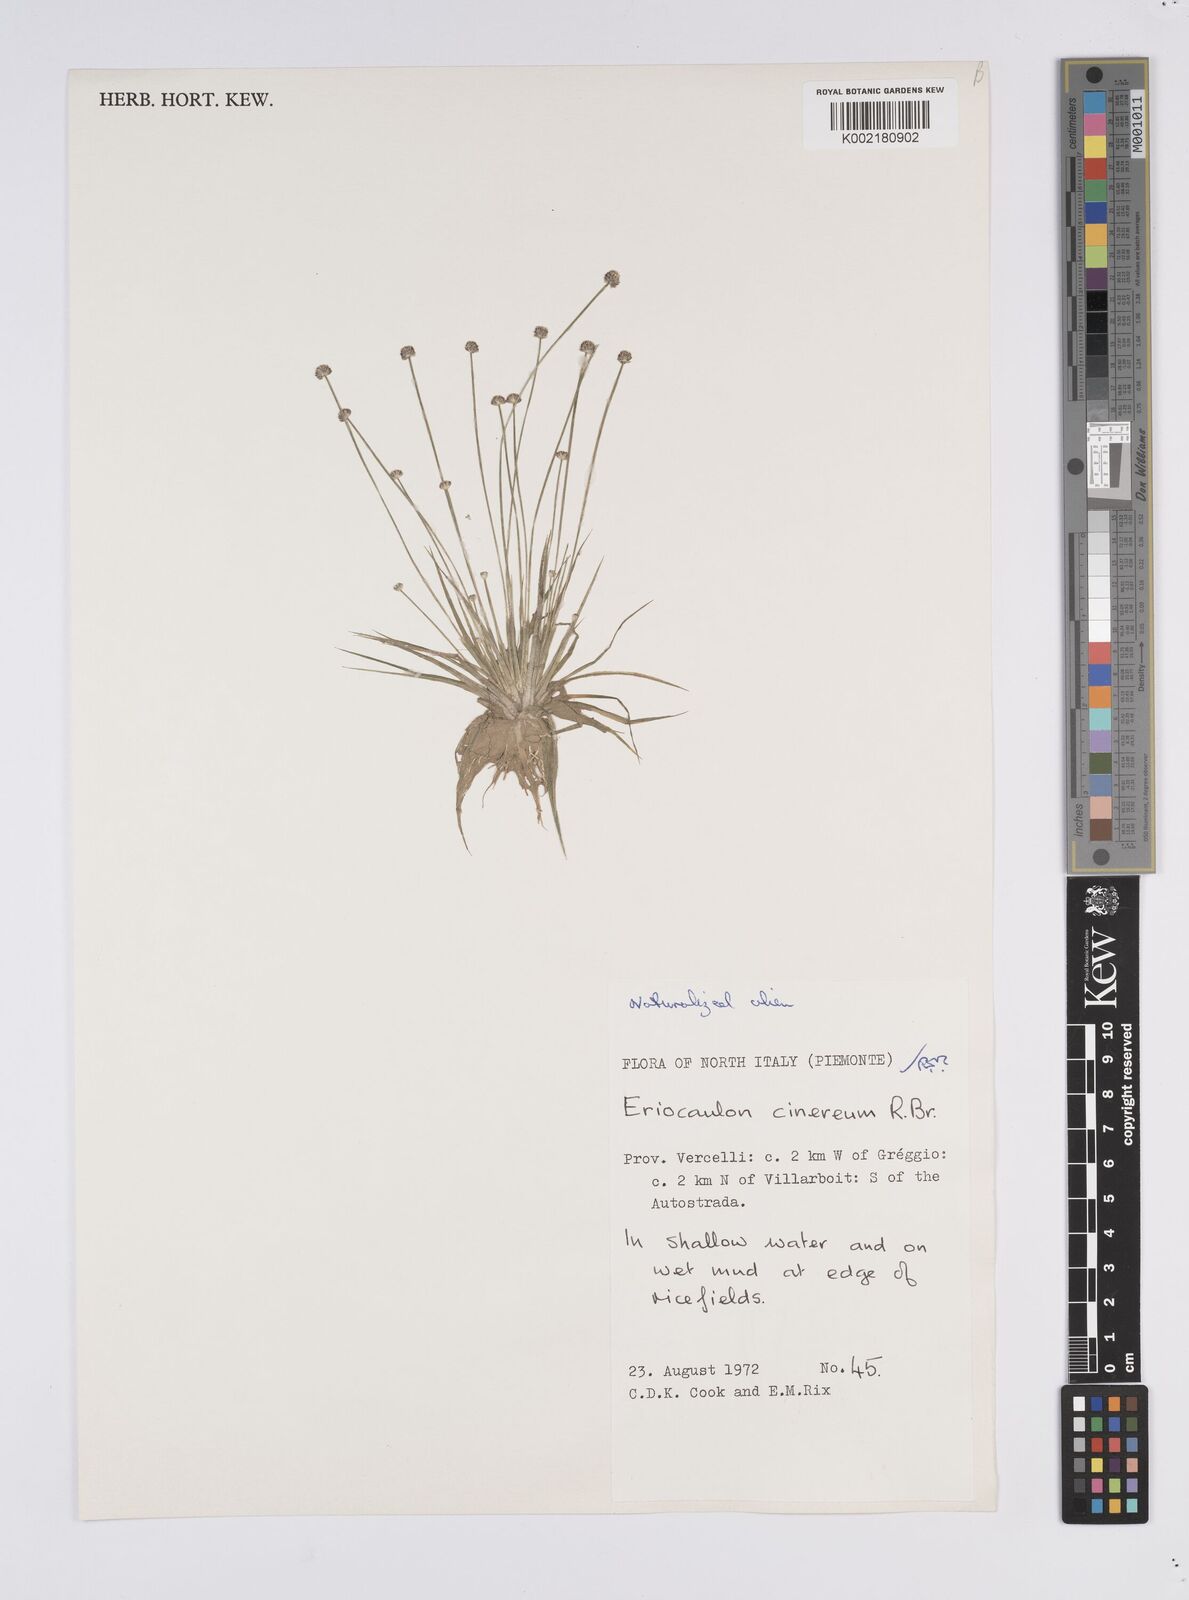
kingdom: Plantae
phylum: Tracheophyta
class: Liliopsida
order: Poales
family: Eriocaulaceae
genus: Eriocaulon
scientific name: Eriocaulon cinereum
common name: Ashy pipewort
